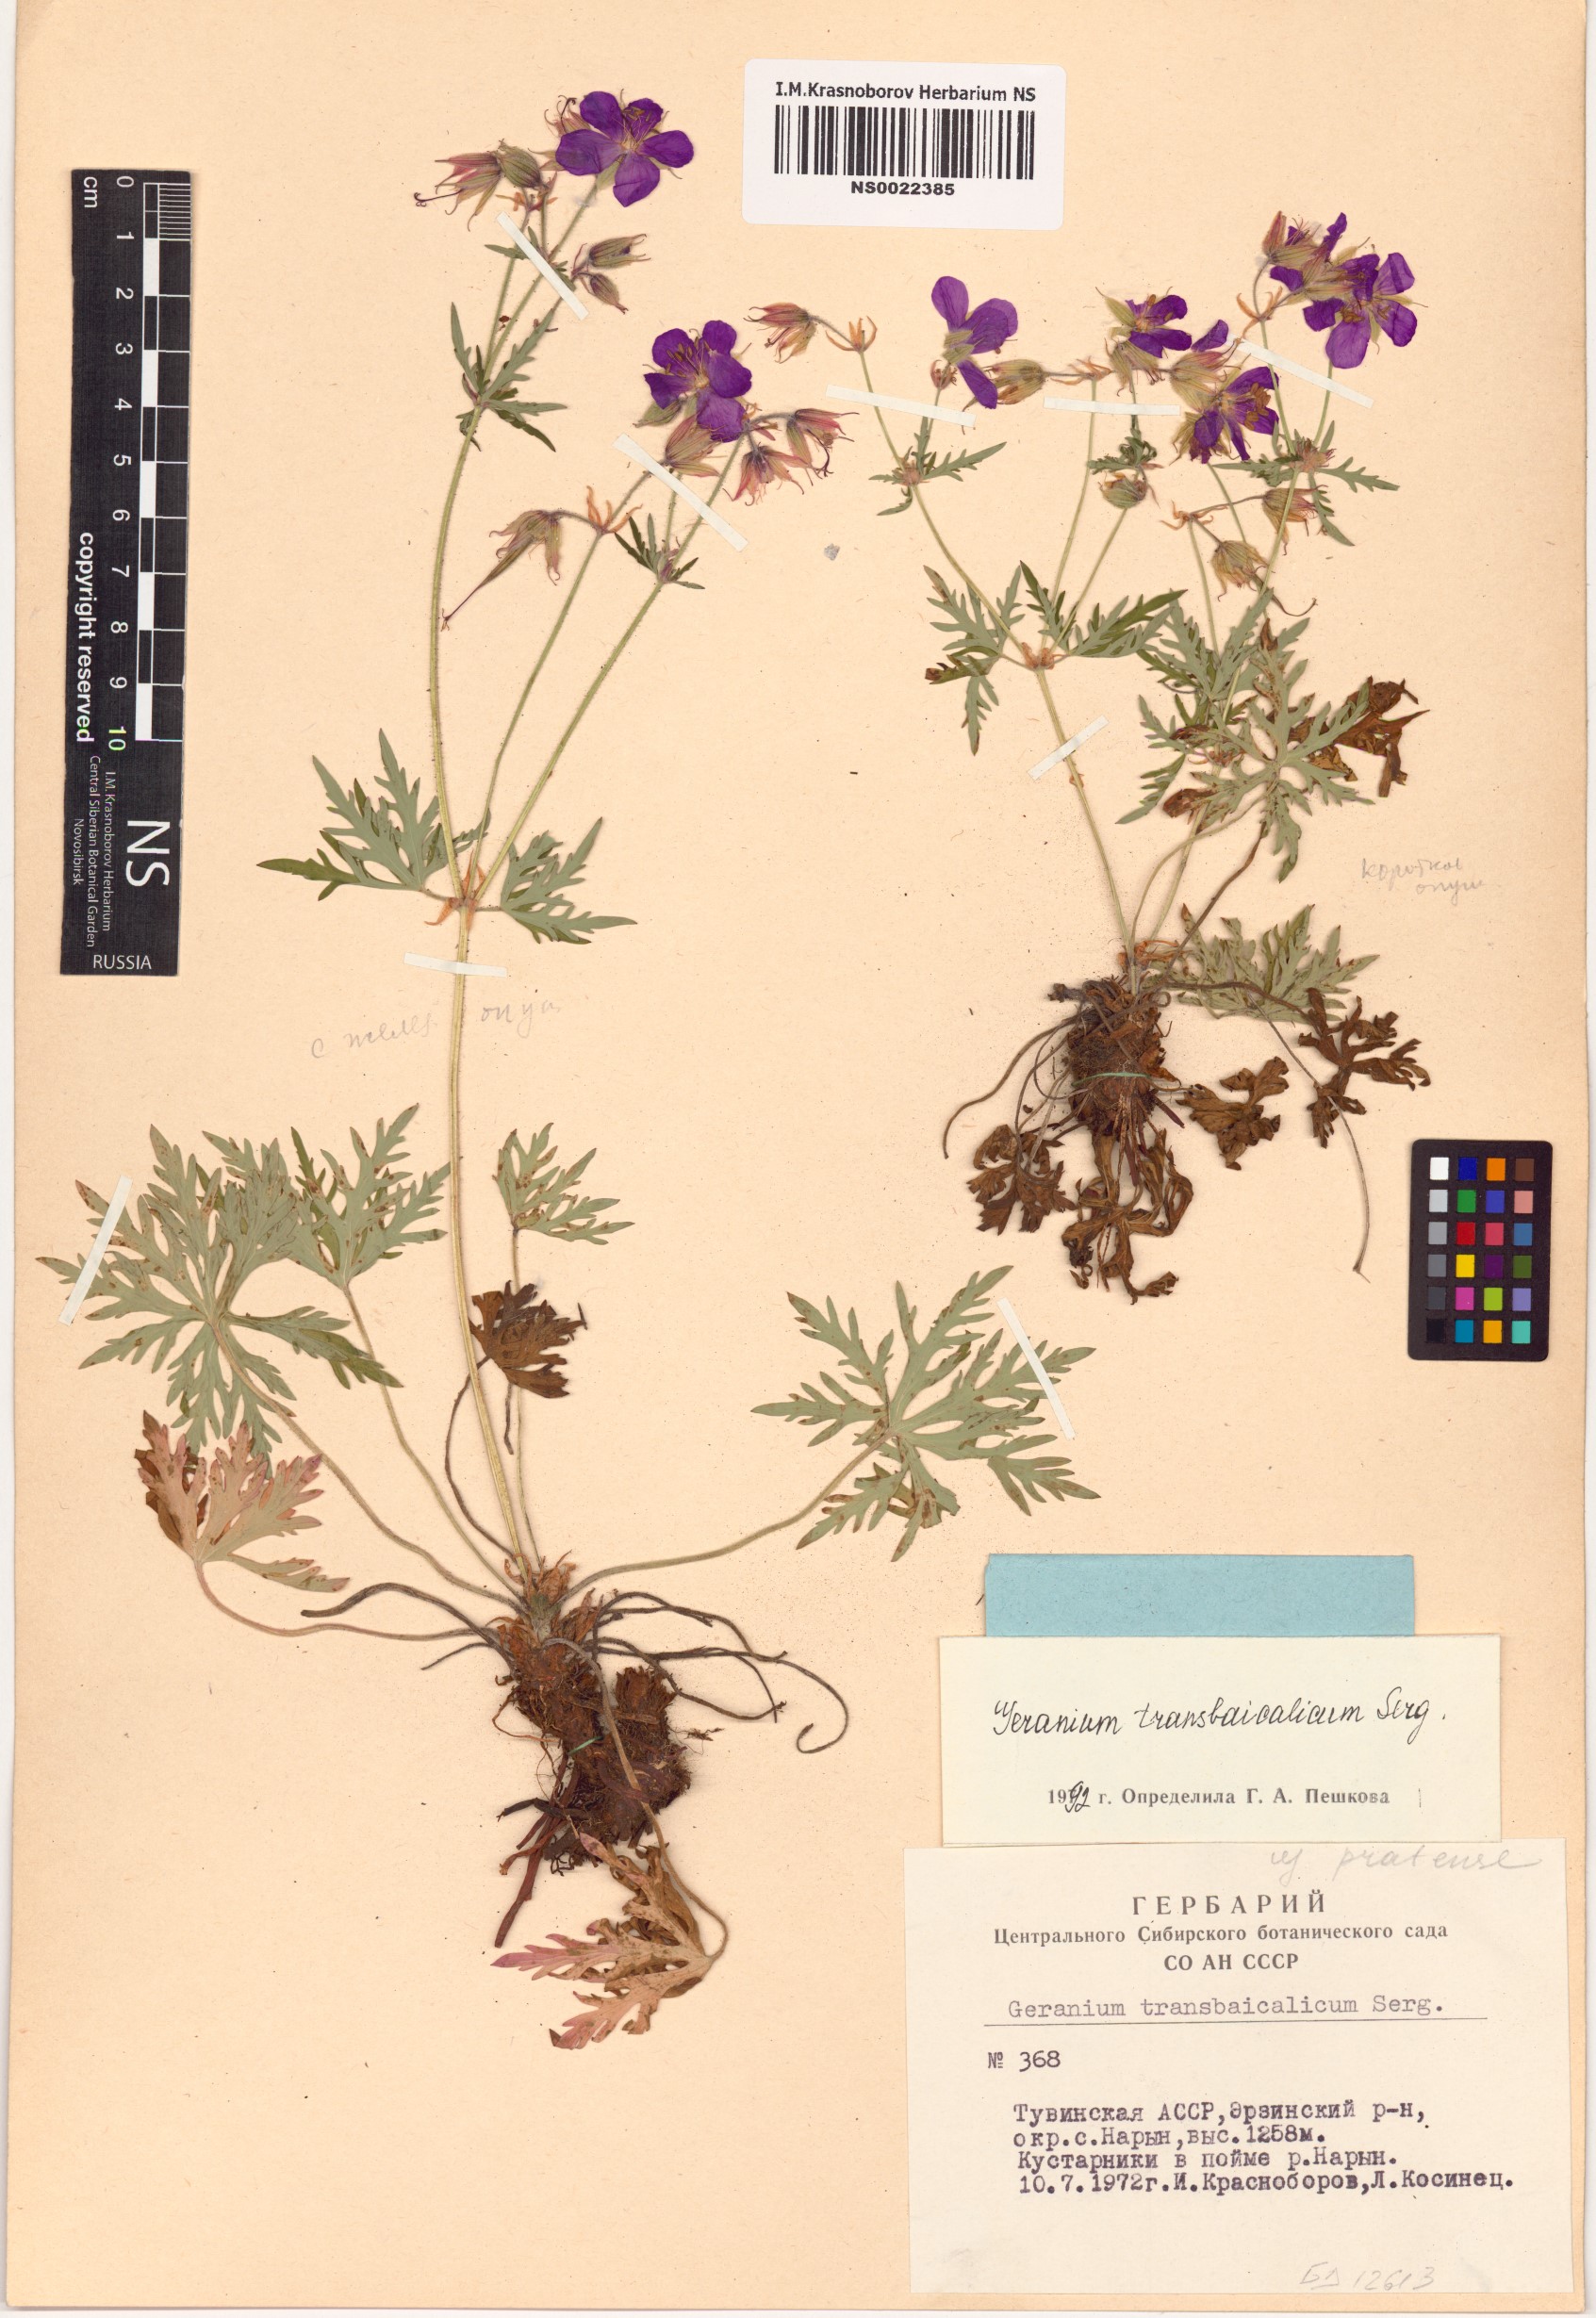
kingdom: Plantae
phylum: Tracheophyta
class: Magnoliopsida
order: Geraniales
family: Geraniaceae
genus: Geranium
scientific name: Geranium pratense
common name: Meadow crane's-bill
